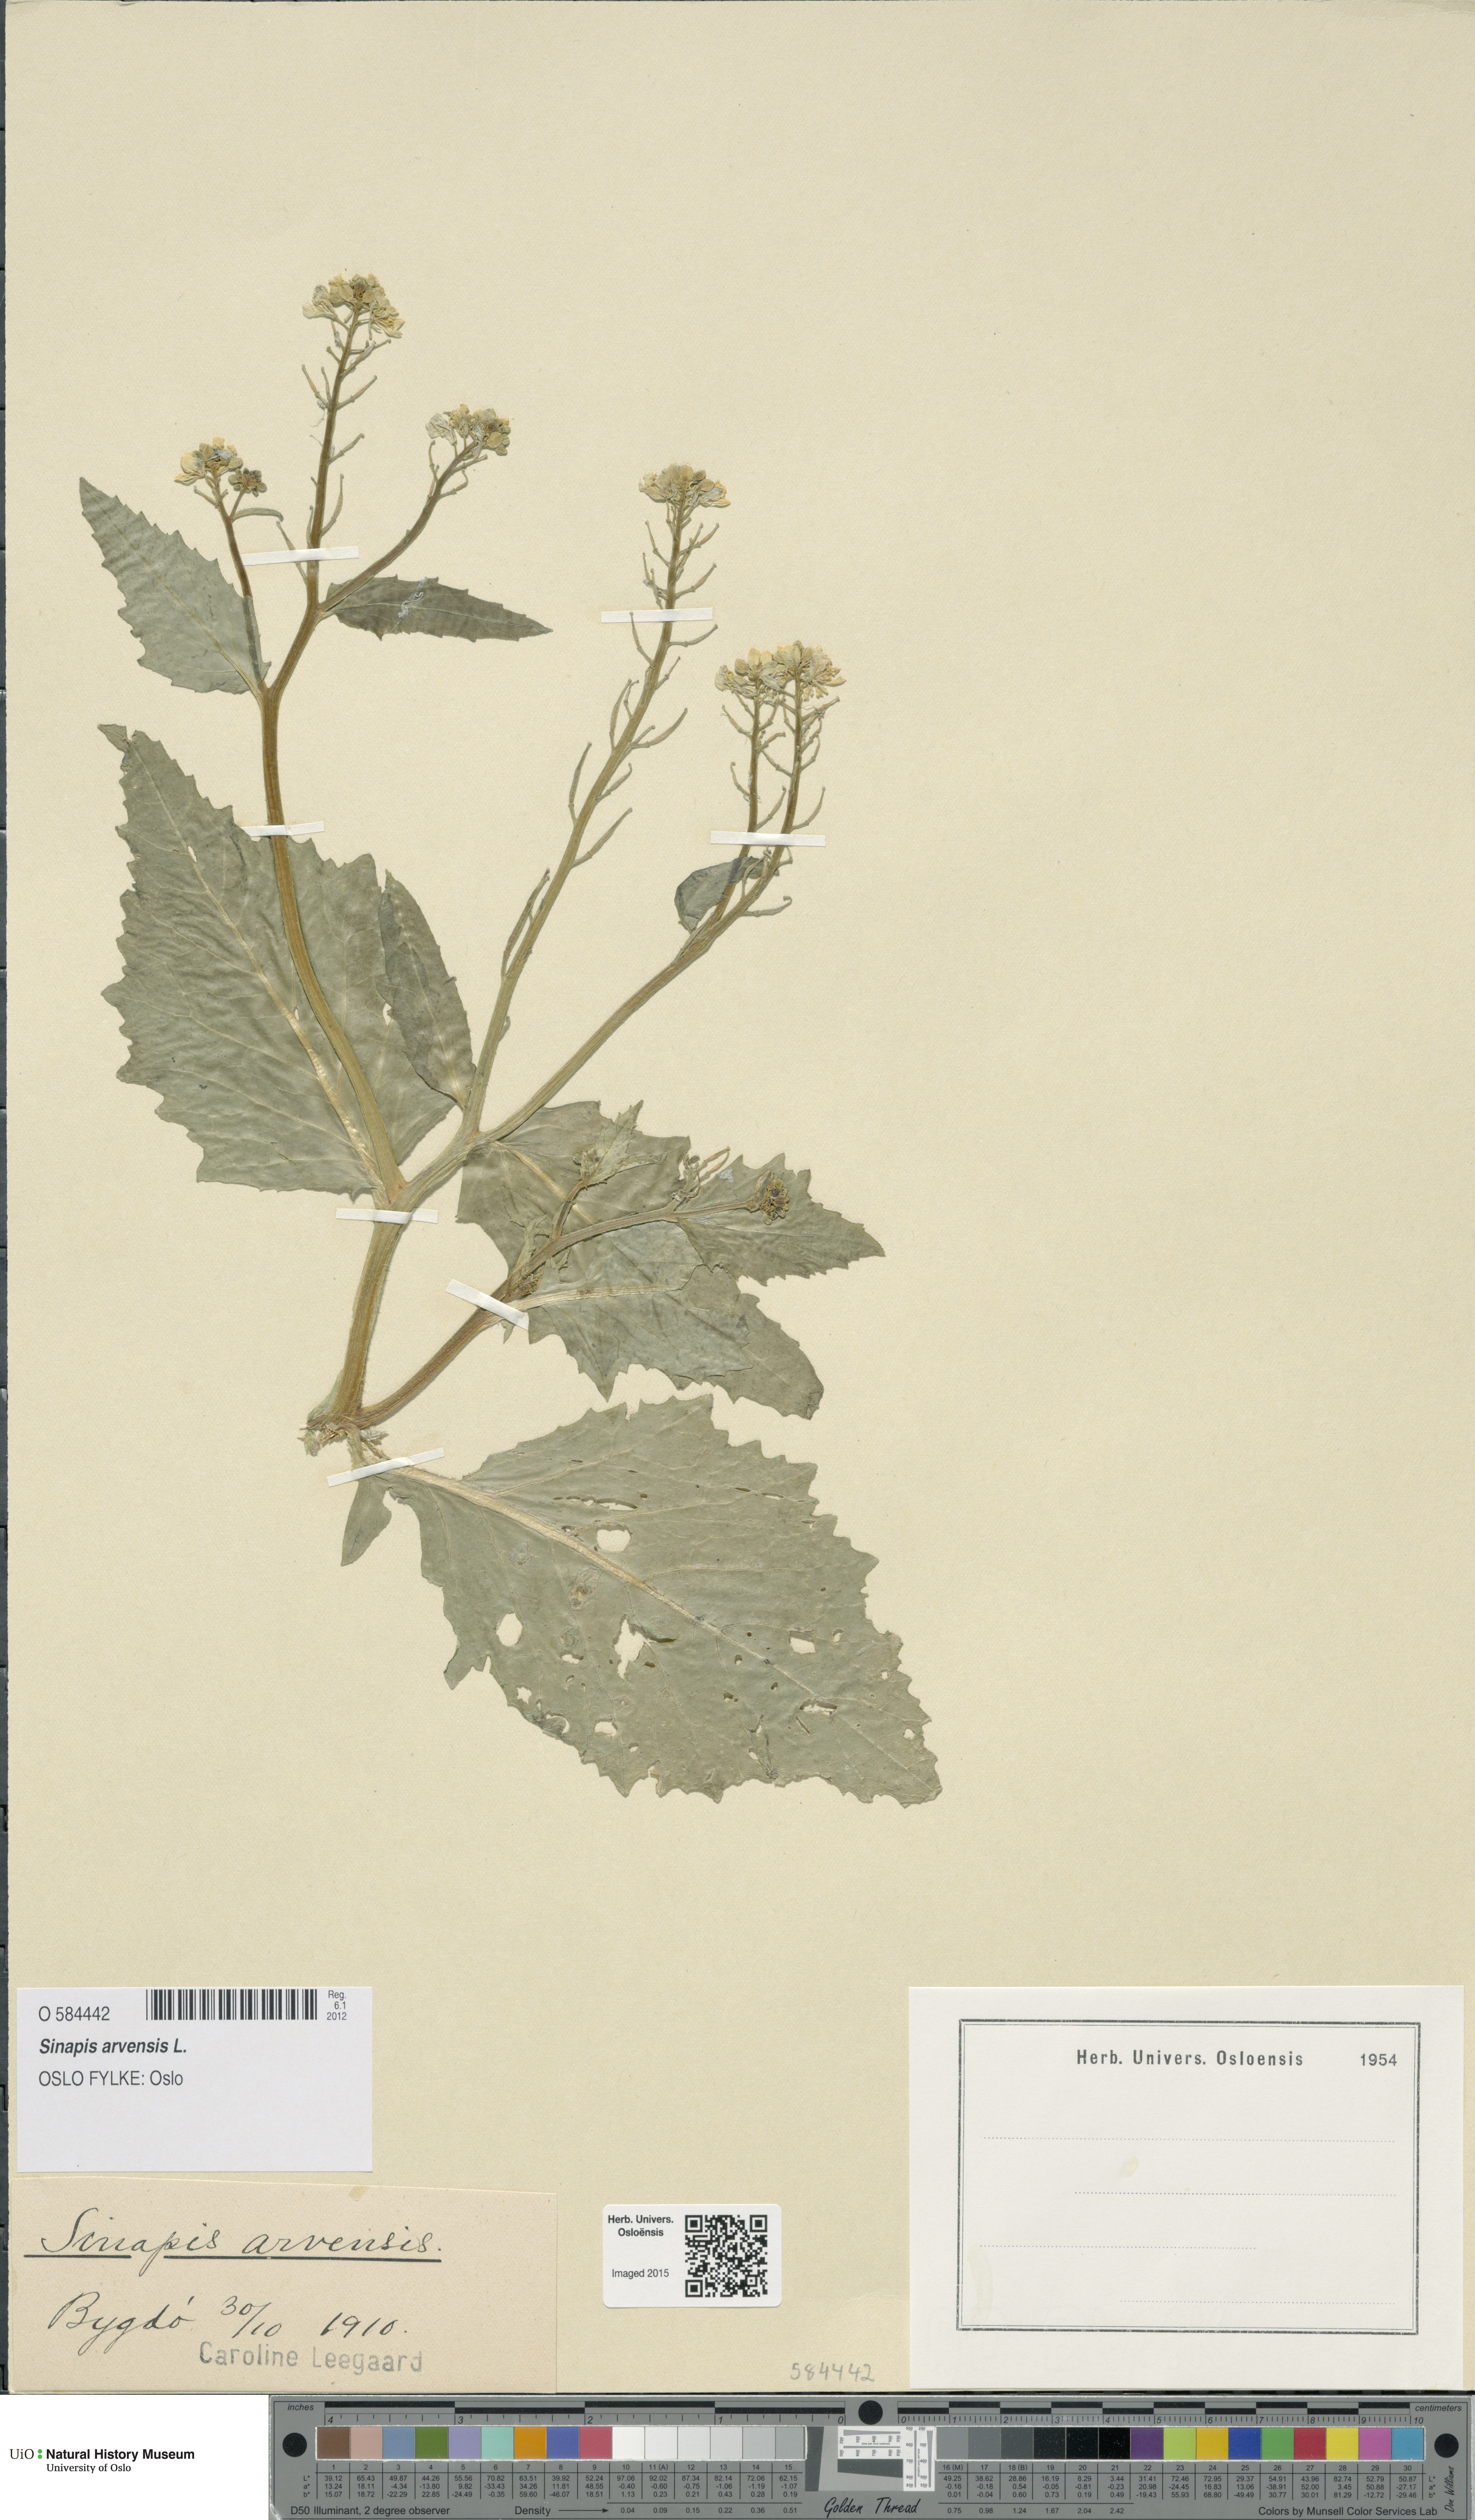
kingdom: Plantae
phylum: Tracheophyta
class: Magnoliopsida
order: Brassicales
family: Brassicaceae
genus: Sinapis
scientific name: Sinapis arvensis
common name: Charlock
